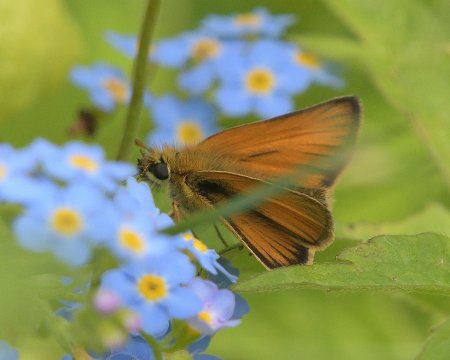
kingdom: Animalia
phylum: Arthropoda
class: Insecta
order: Lepidoptera
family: Hesperiidae
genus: Thymelicus
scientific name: Thymelicus lineola
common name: European Skipper
